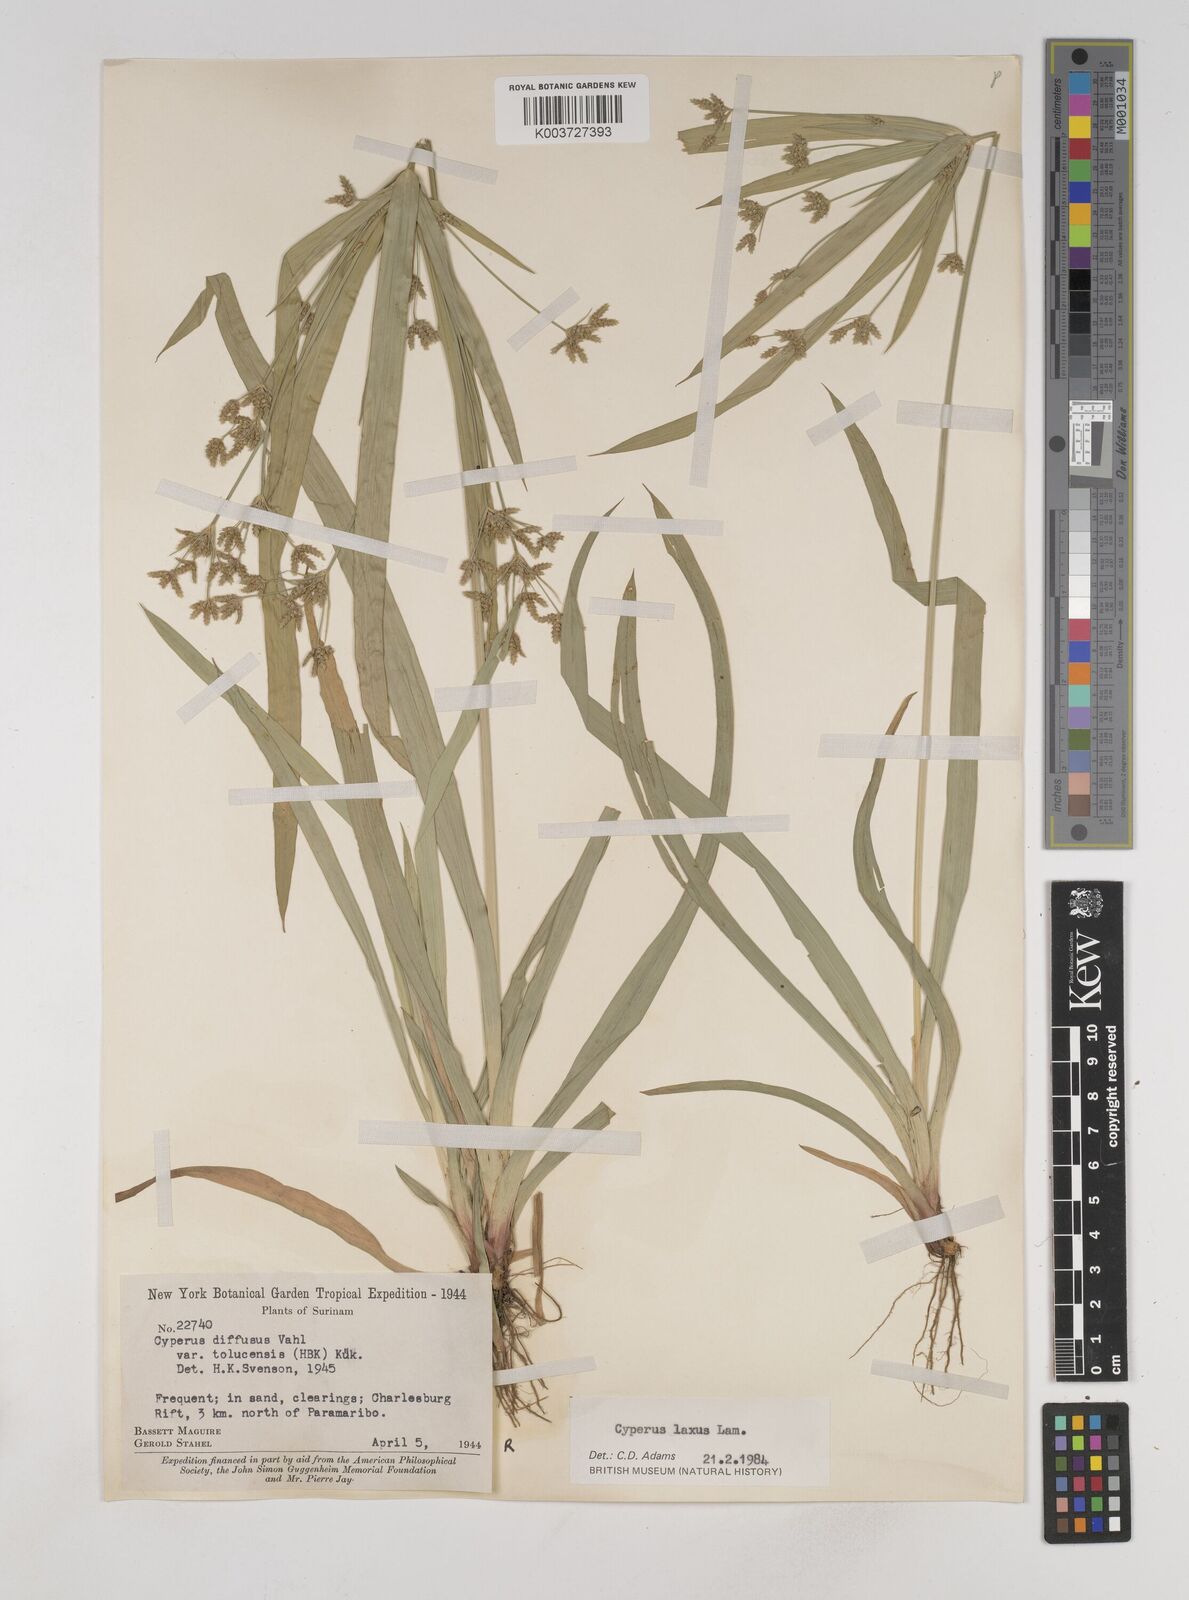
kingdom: Plantae
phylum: Tracheophyta
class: Liliopsida
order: Poales
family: Cyperaceae
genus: Cyperus
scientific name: Cyperus chalaranthus
